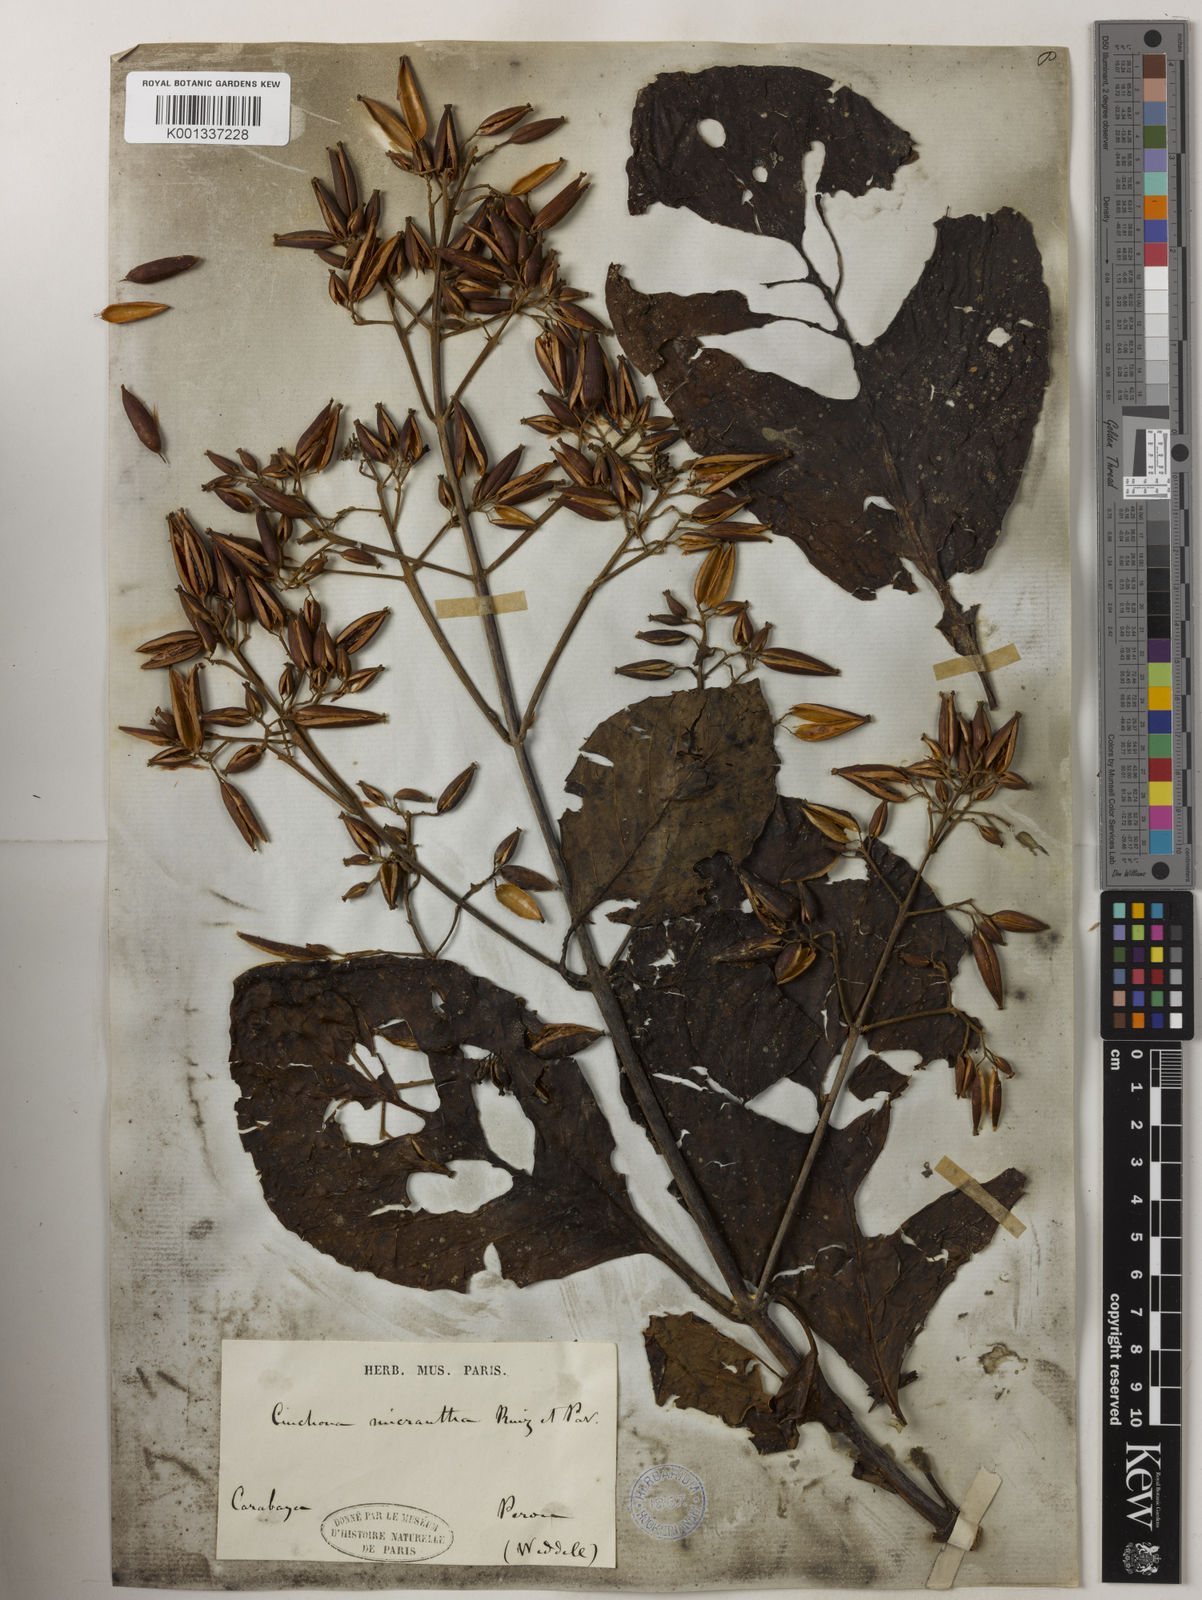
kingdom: Plantae
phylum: Tracheophyta
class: Magnoliopsida
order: Gentianales
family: Rubiaceae
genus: Cinchona
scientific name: Cinchona micrantha
